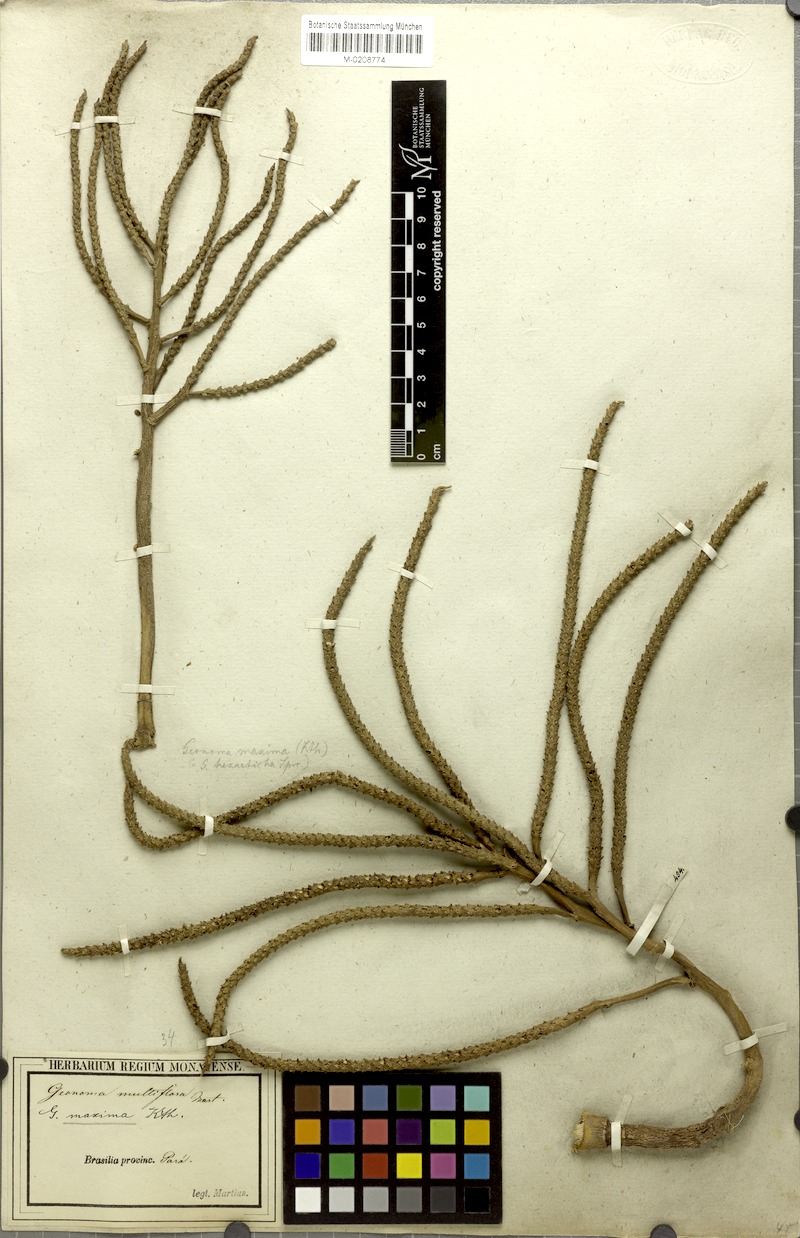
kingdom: Plantae
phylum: Tracheophyta
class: Liliopsida
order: Arecales
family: Arecaceae
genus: Geonoma
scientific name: Geonoma maxima
